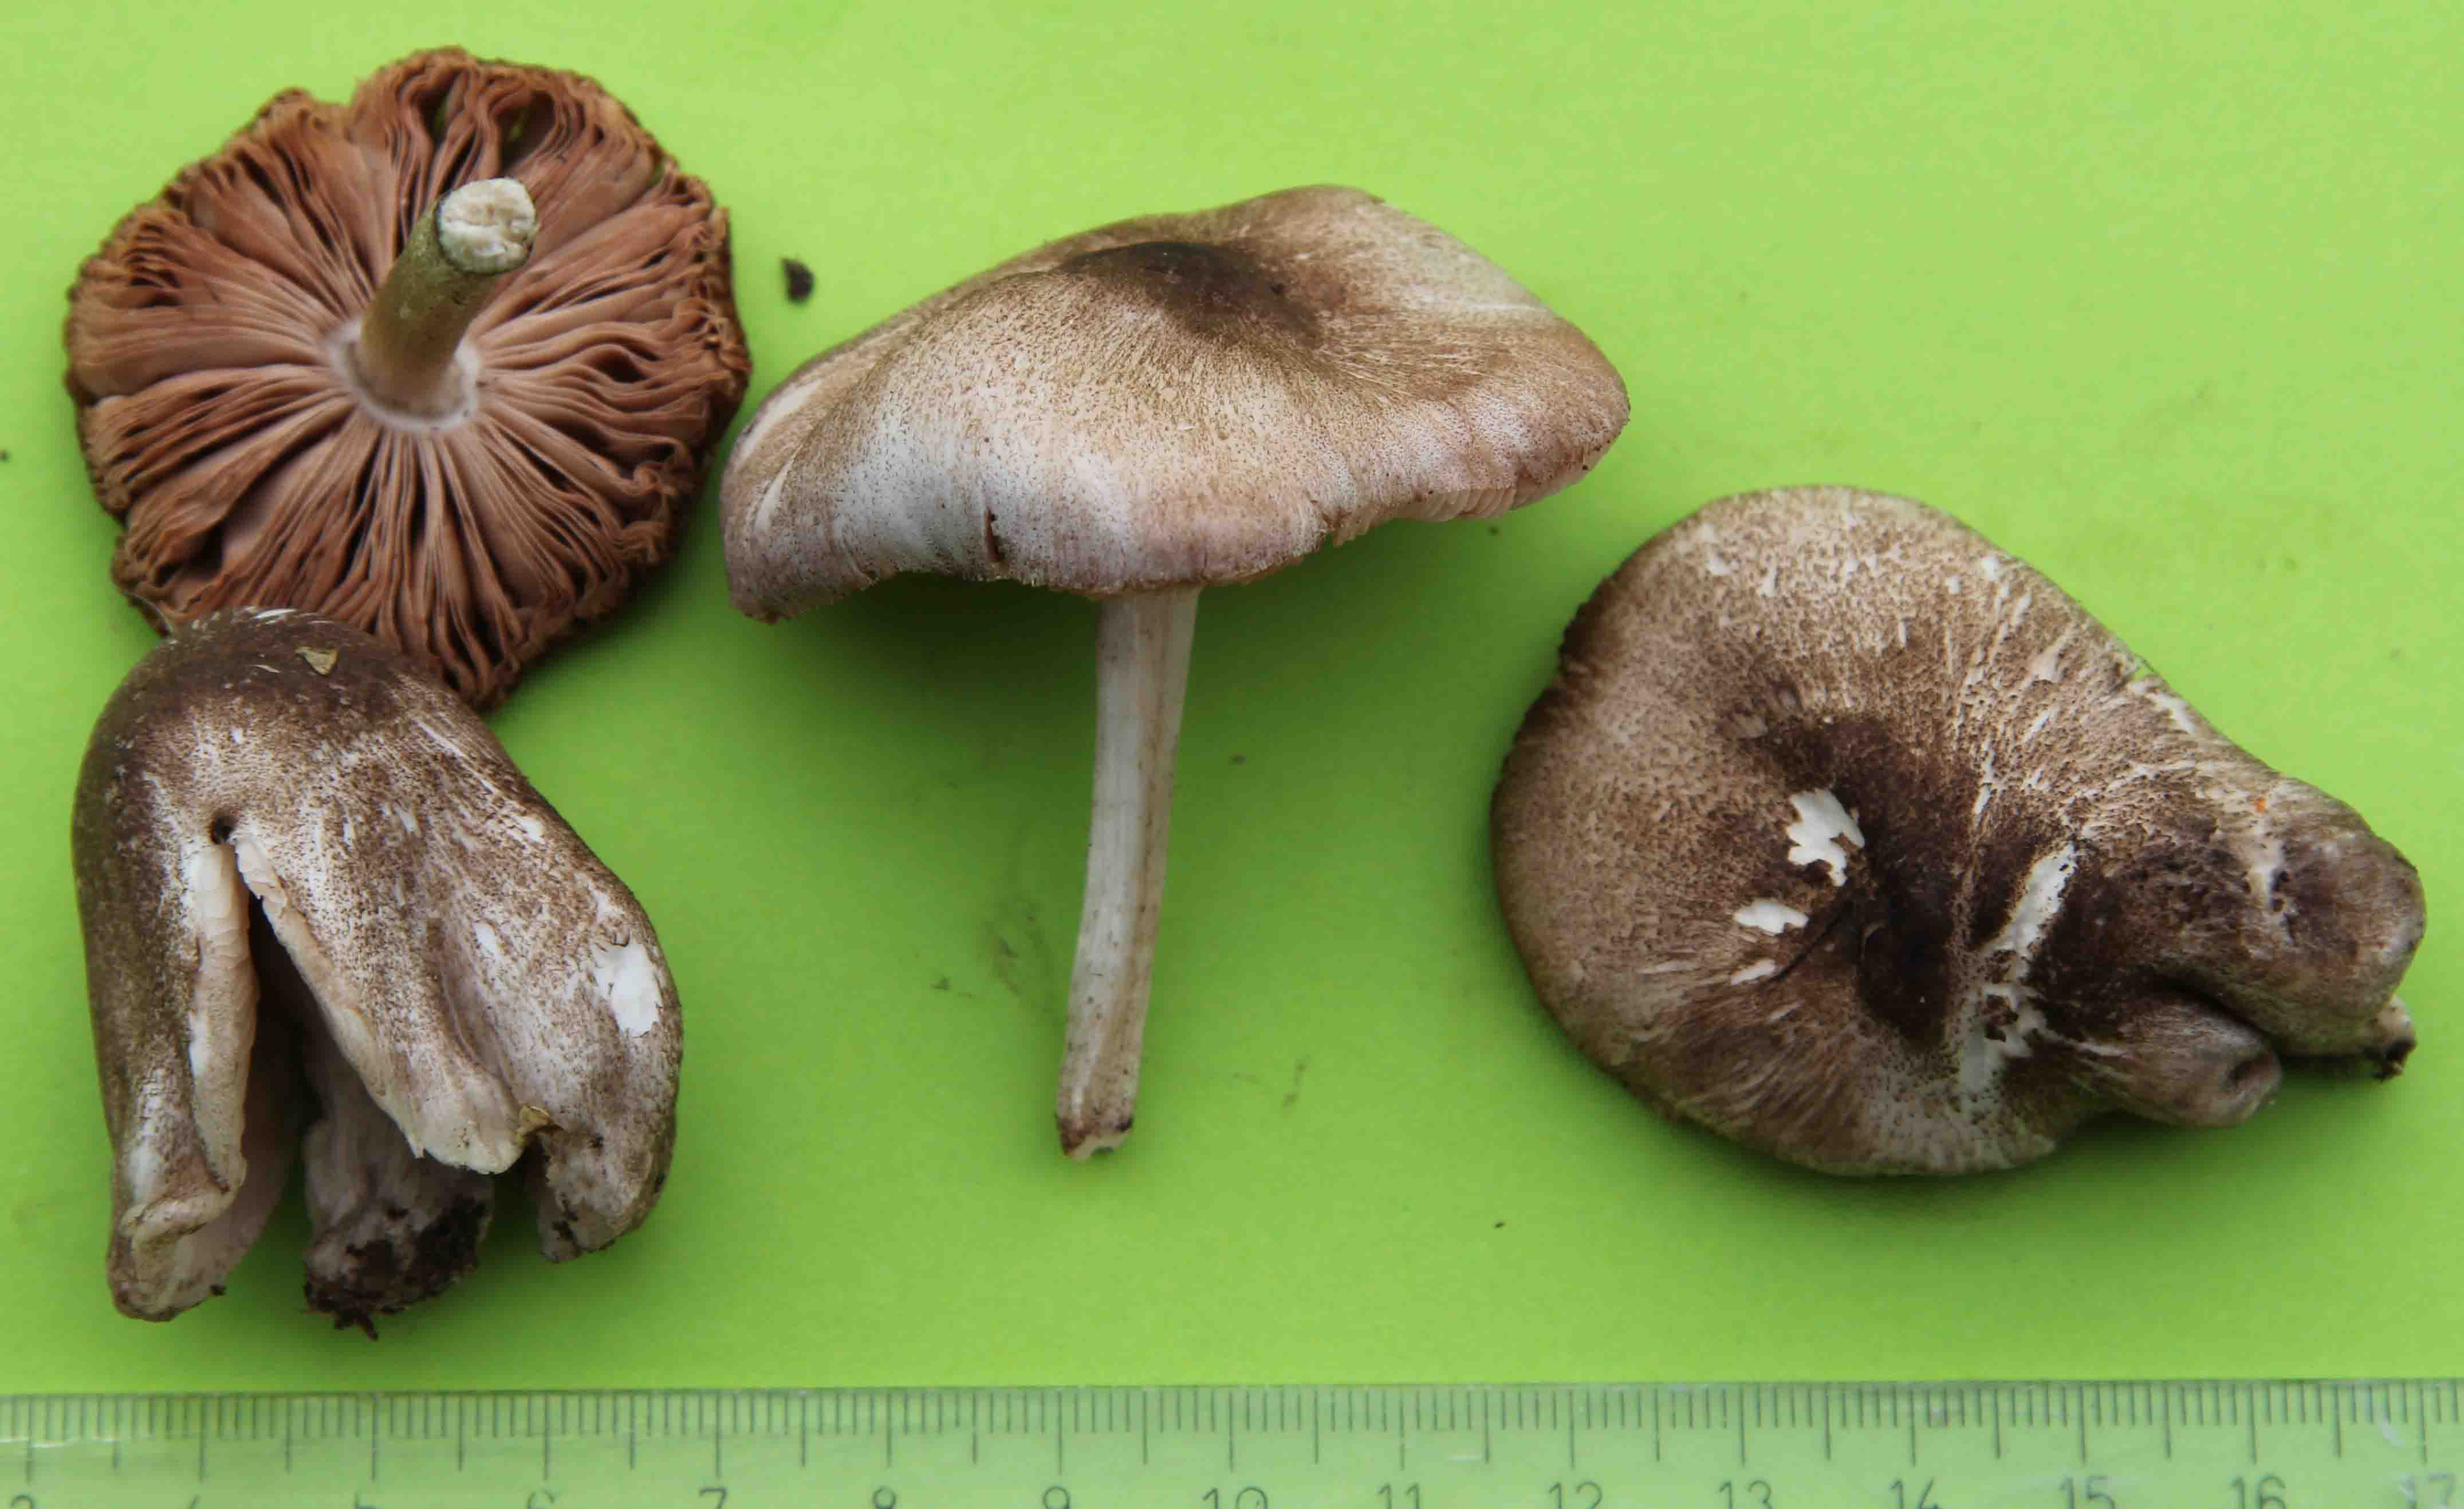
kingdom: Fungi
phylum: Basidiomycota
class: Agaricomycetes
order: Agaricales
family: Pluteaceae
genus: Pluteus
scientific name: Pluteus
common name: gråfibret skærmhat
